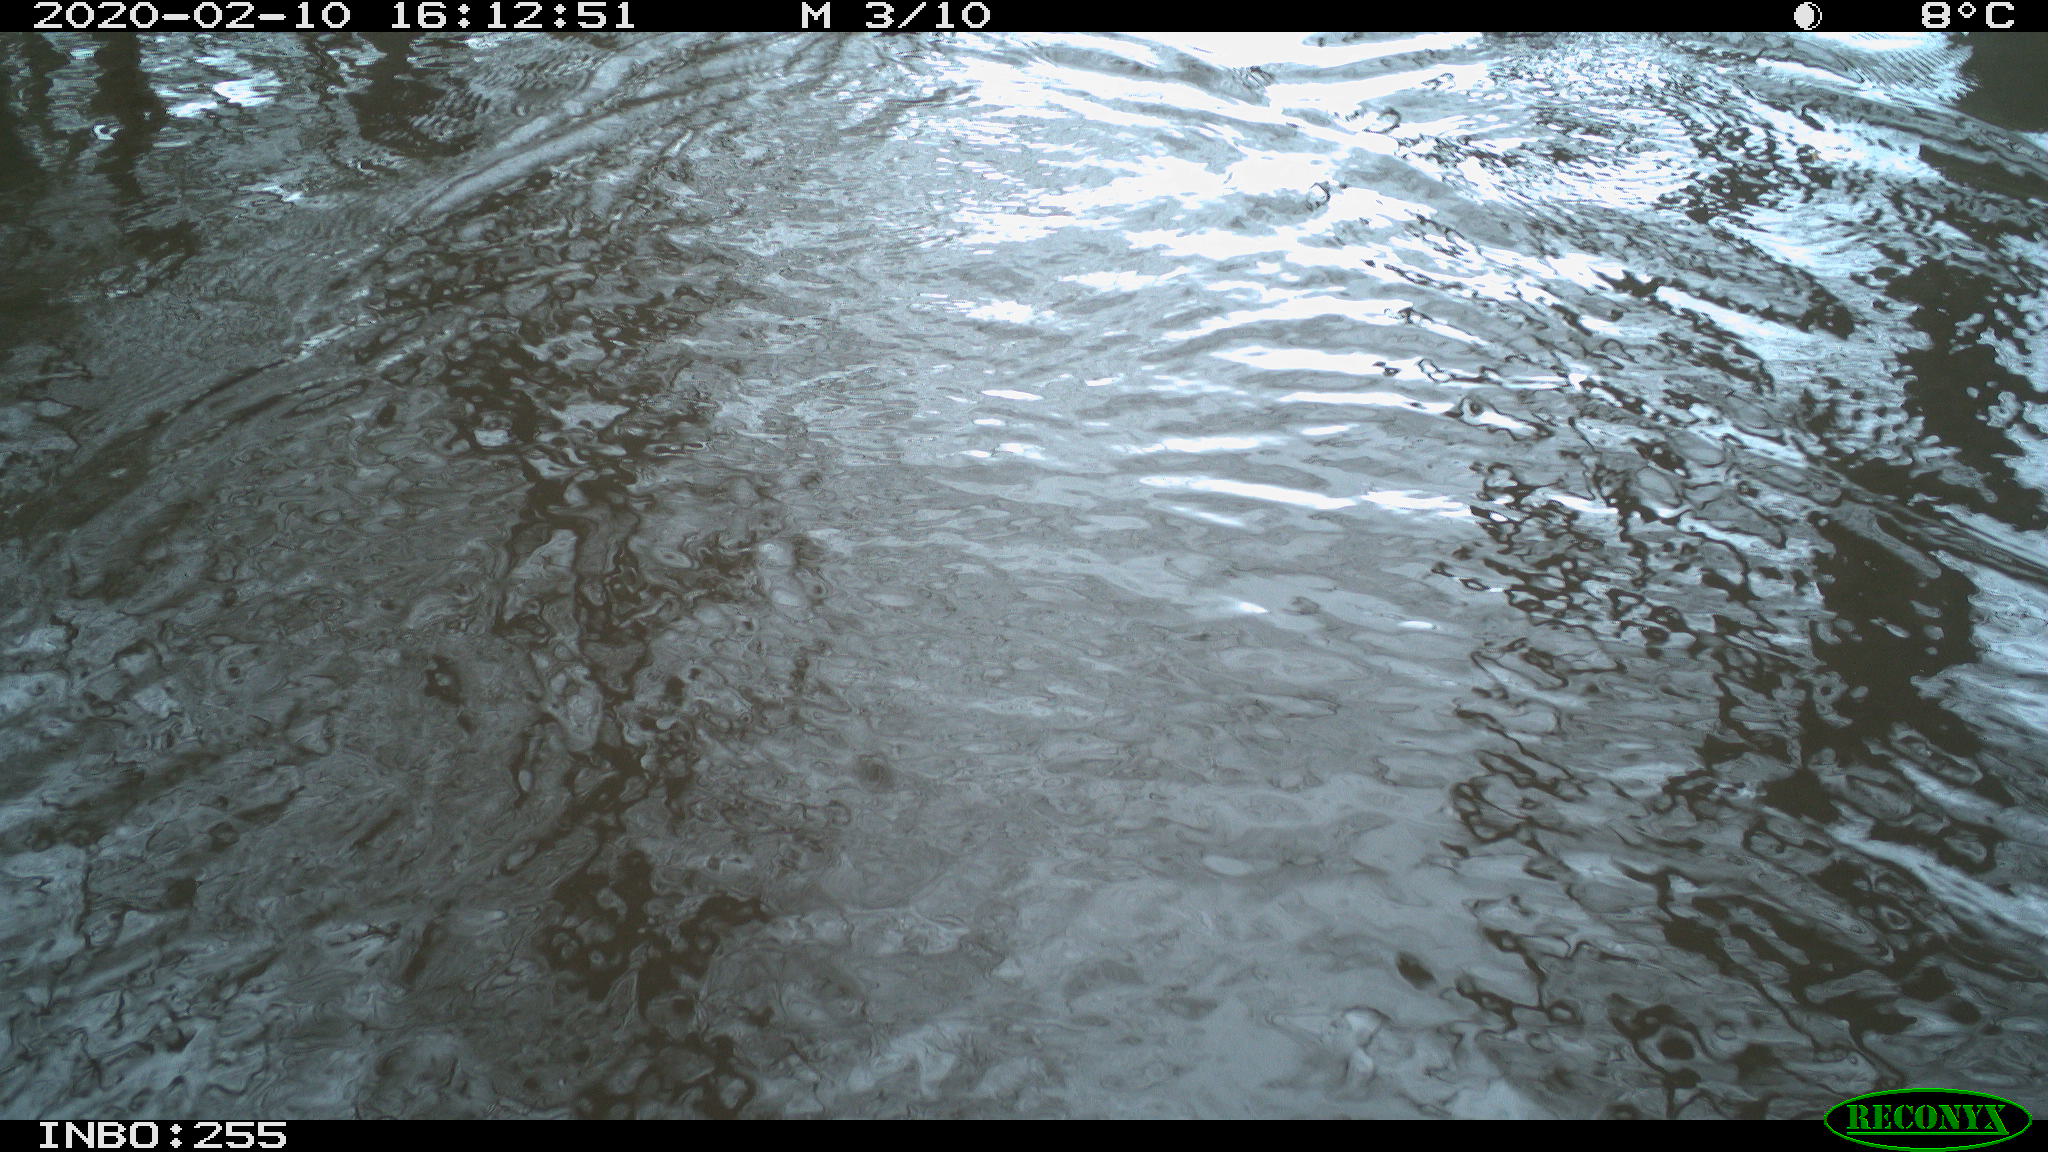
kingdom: Animalia
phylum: Chordata
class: Aves
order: Gruiformes
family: Rallidae
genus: Fulica
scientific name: Fulica atra
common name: Eurasian coot
